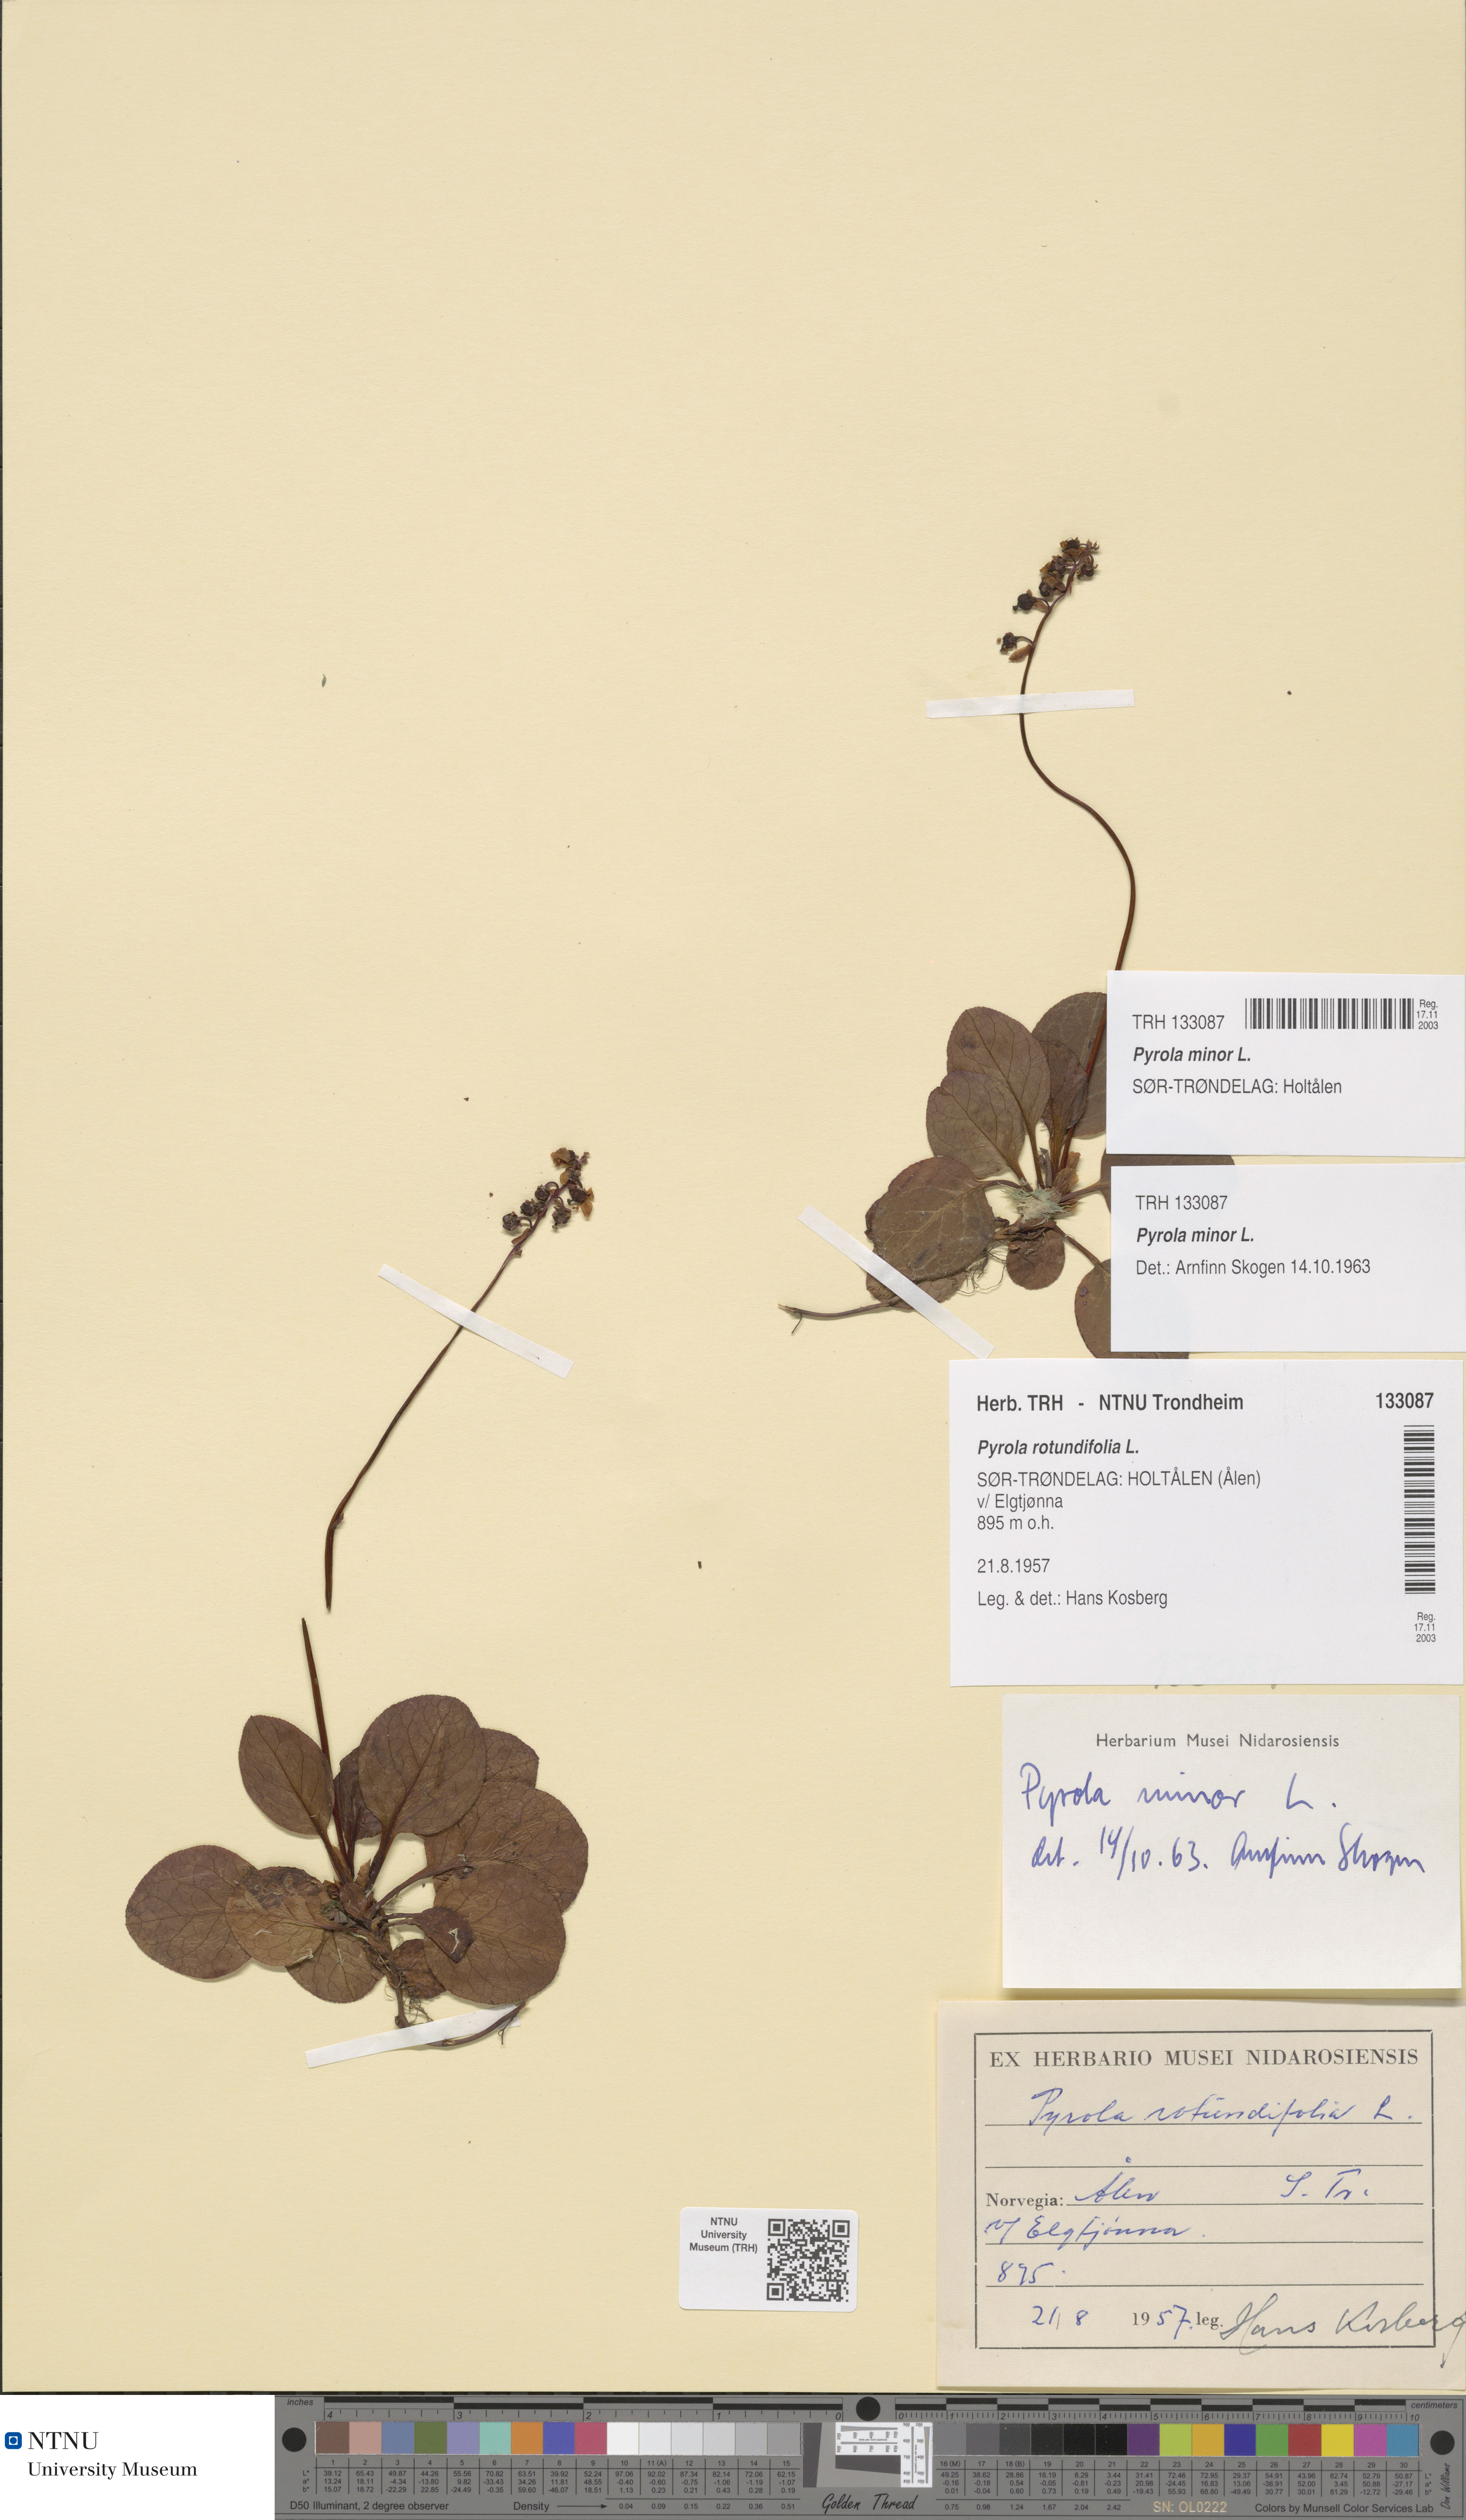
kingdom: Plantae
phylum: Tracheophyta
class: Magnoliopsida
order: Ericales
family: Ericaceae
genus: Pyrola
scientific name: Pyrola minor
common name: Common wintergreen
